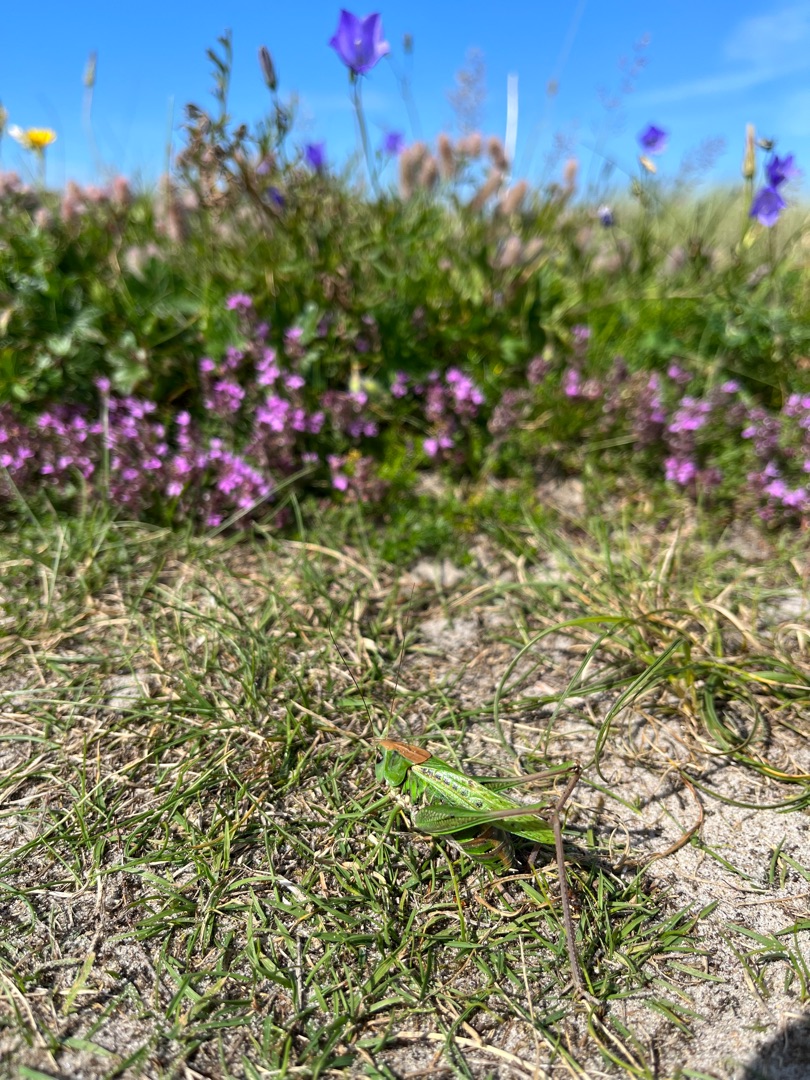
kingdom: Animalia
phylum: Arthropoda
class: Insecta
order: Orthoptera
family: Tettigoniidae
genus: Decticus
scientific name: Decticus verrucivorus
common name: Vortebider
